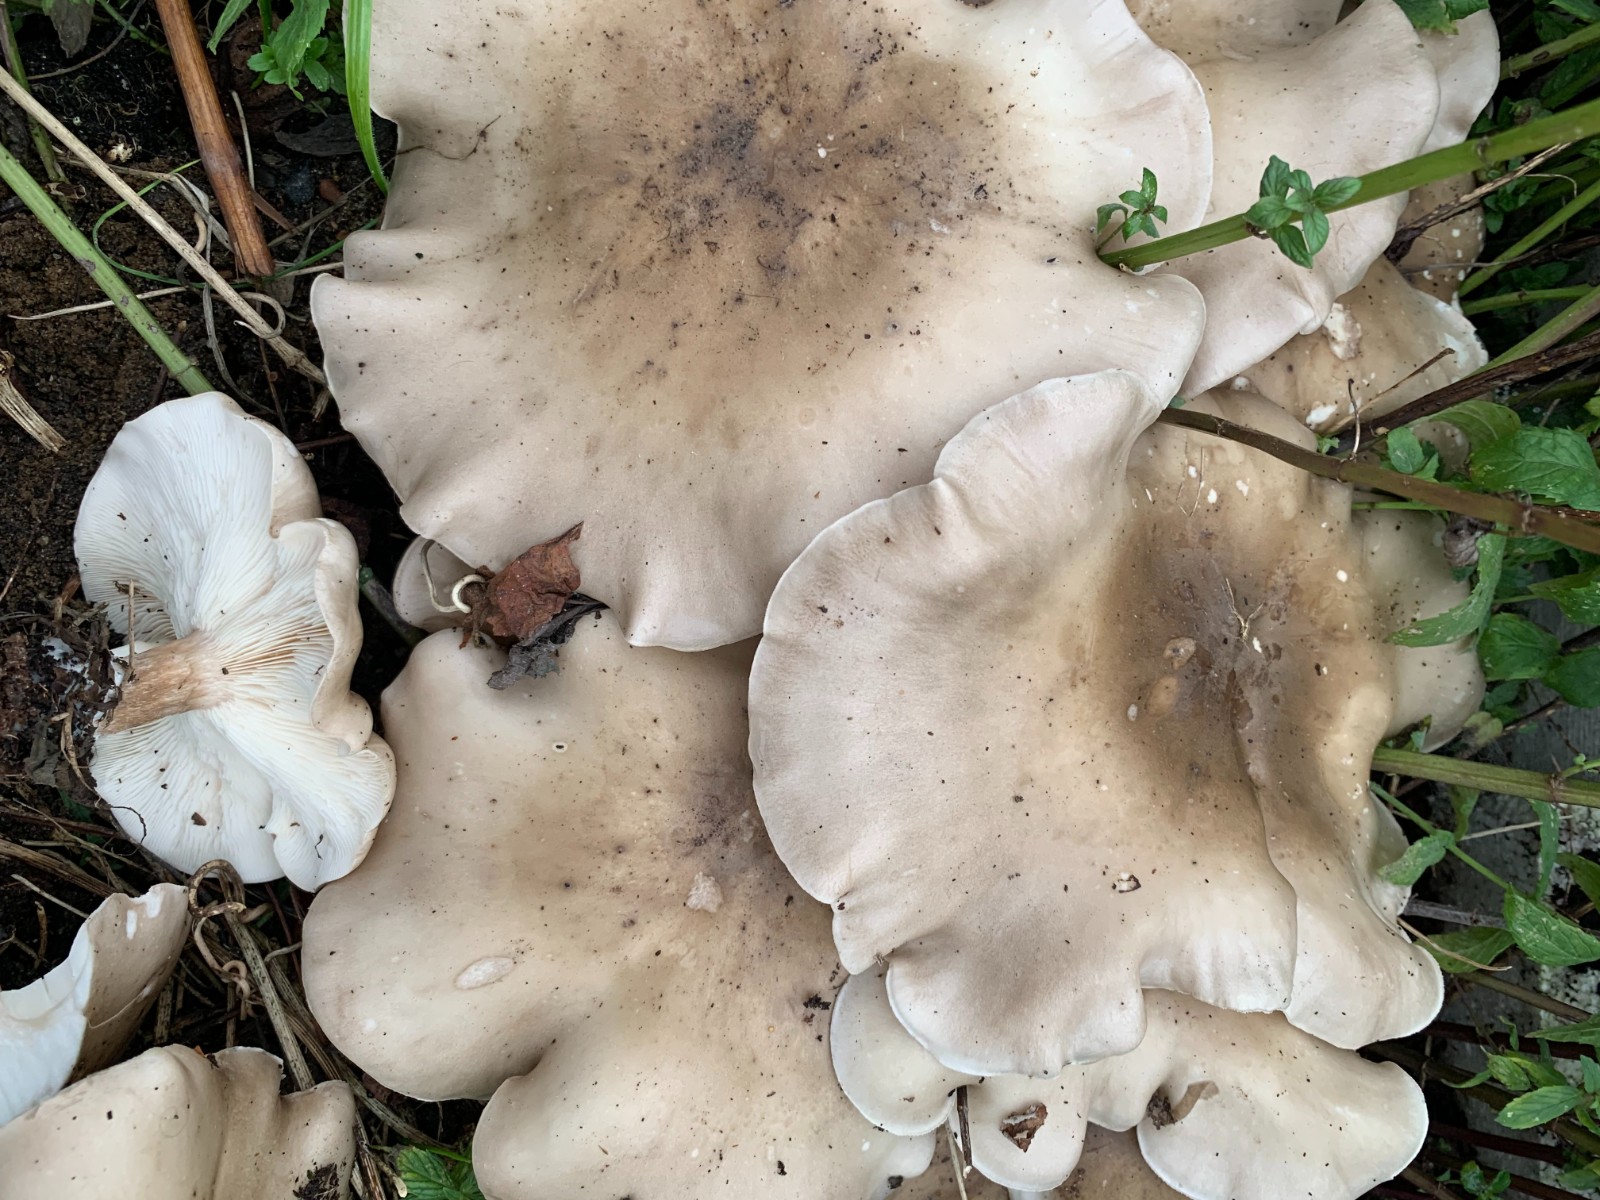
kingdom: Fungi
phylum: Basidiomycota
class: Agaricomycetes
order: Agaricales
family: Tricholomataceae
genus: Clitocybe
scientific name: Clitocybe nebularis
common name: tåge-tragthat
